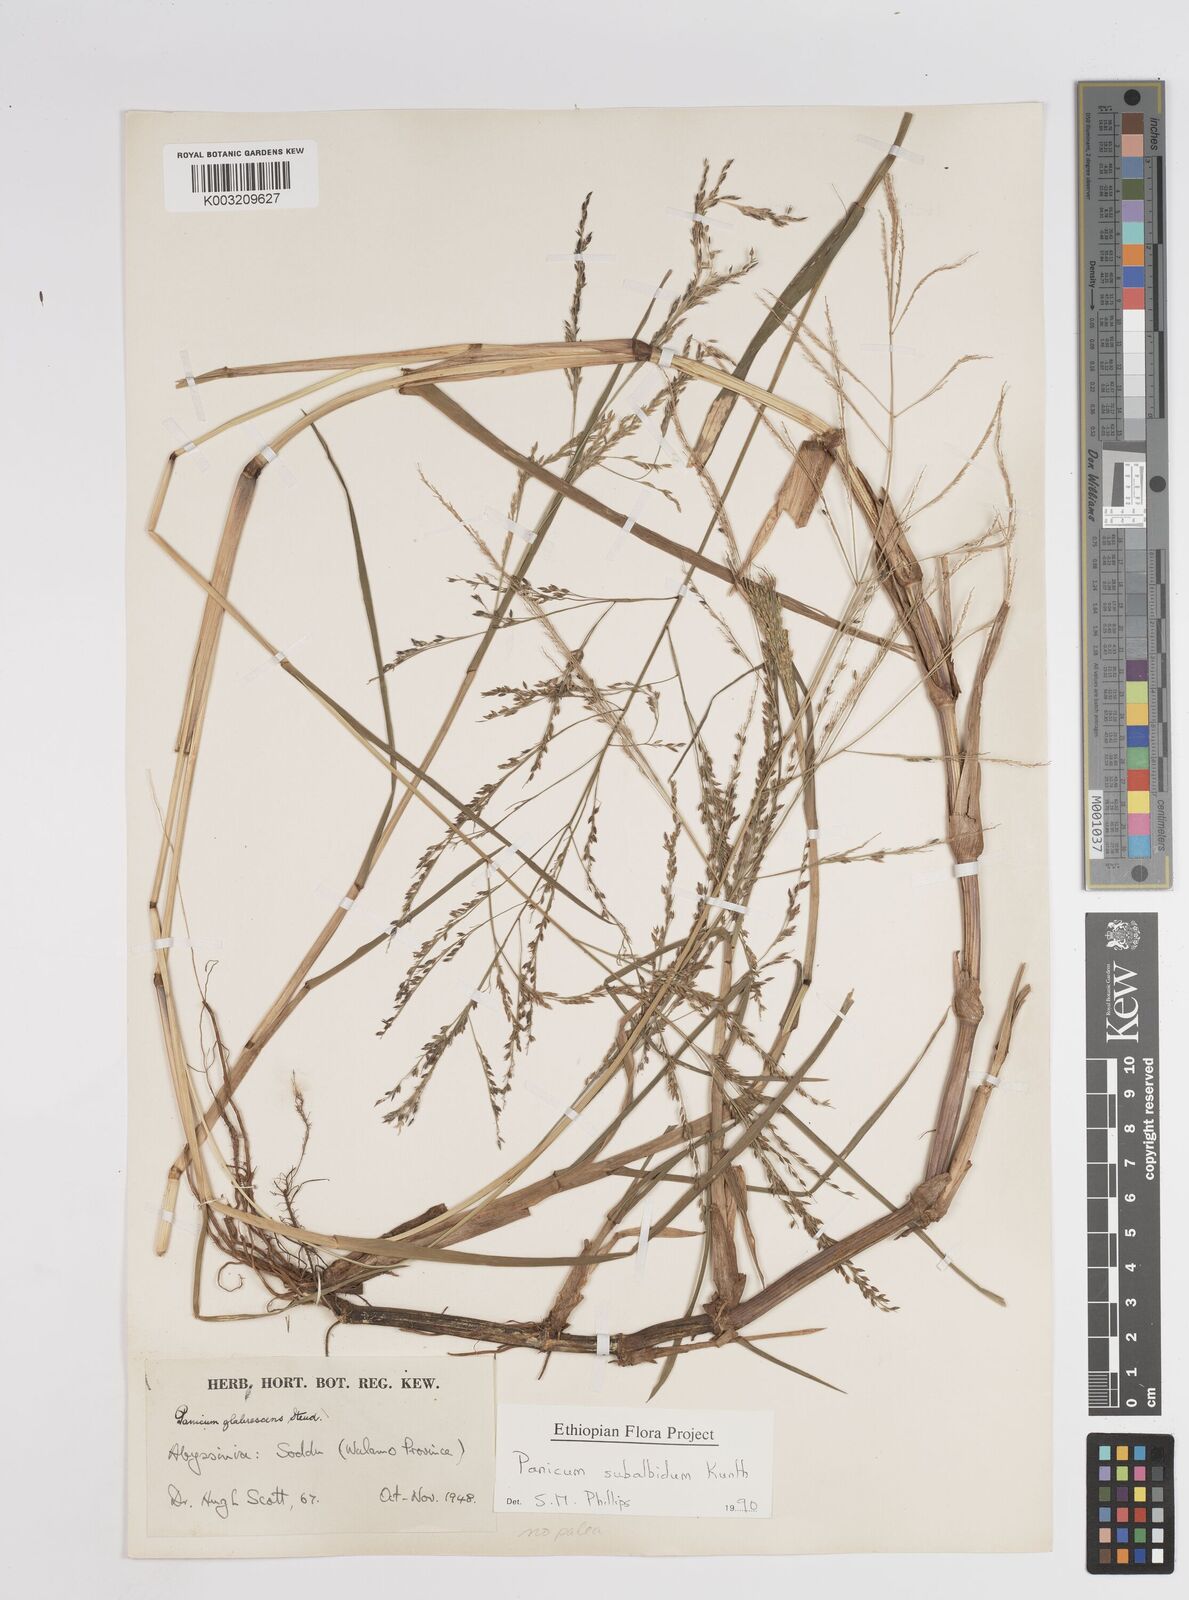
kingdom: Plantae
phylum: Tracheophyta
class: Liliopsida
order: Poales
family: Poaceae
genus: Panicum
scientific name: Panicum subalbidum
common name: Elbow buffalo grass
